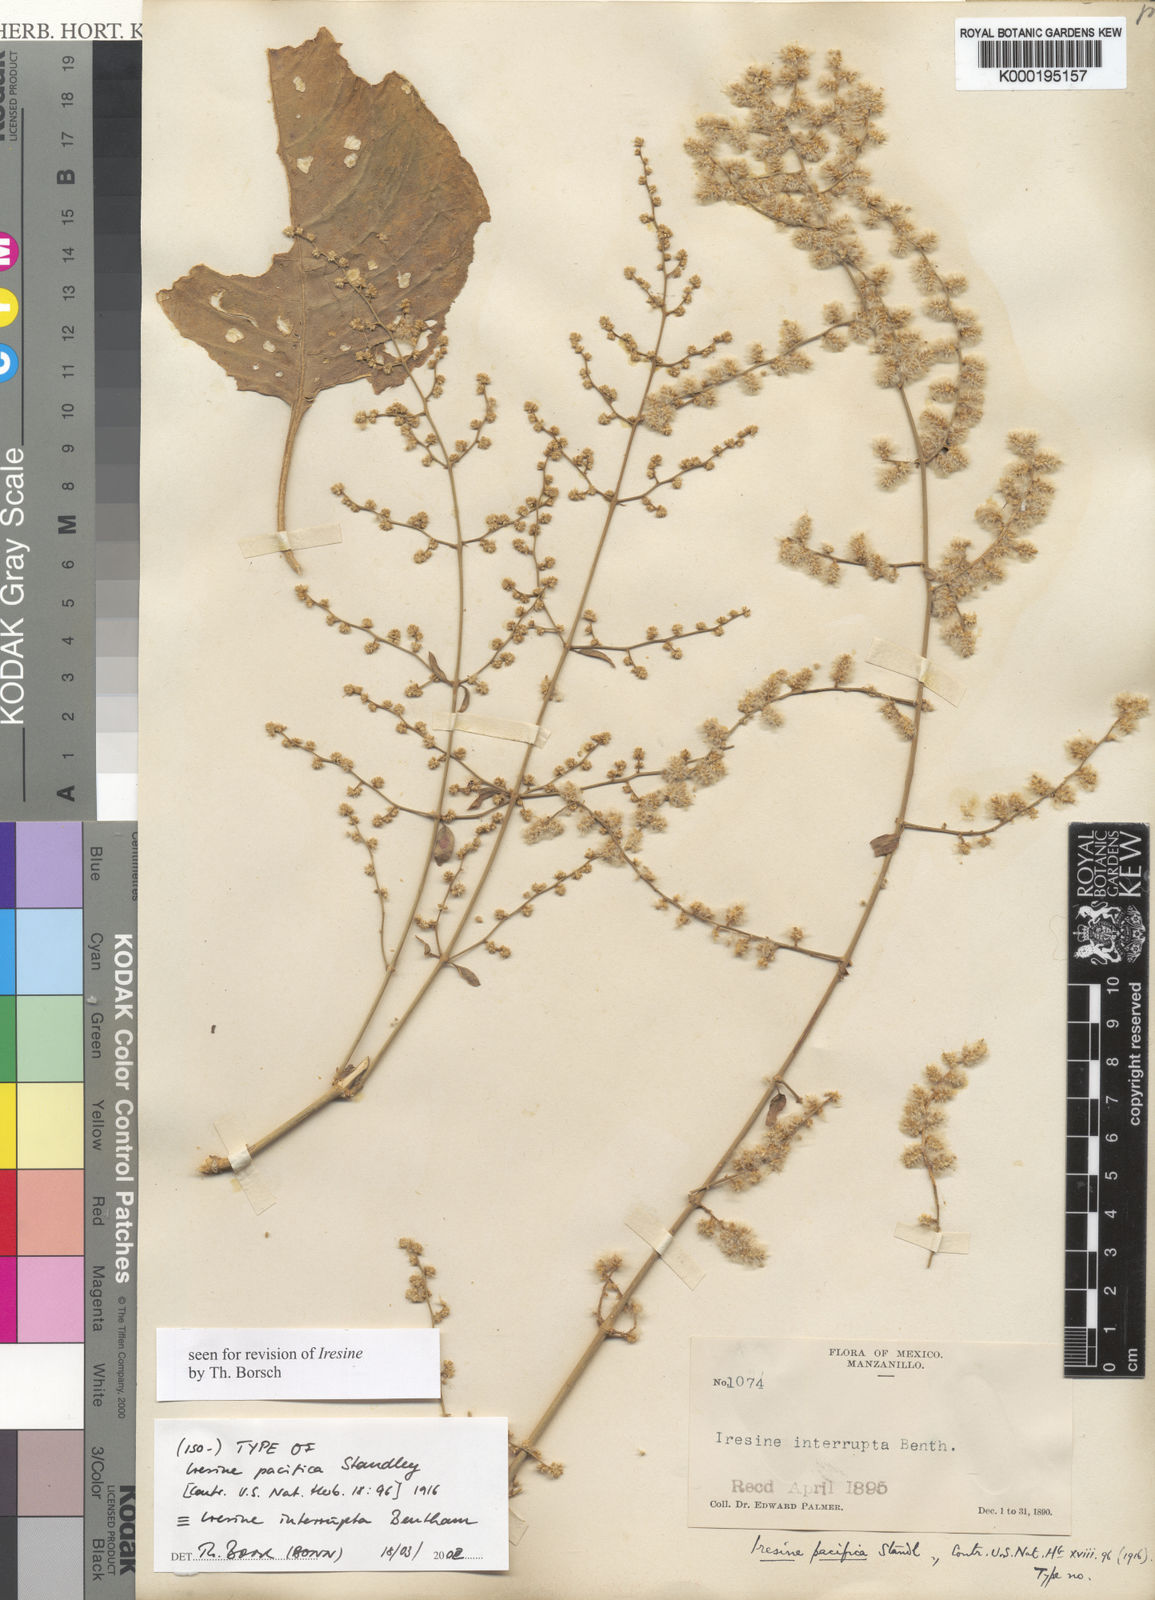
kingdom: Plantae
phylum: Tracheophyta
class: Magnoliopsida
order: Caryophyllales
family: Amaranthaceae
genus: Iresine
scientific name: Iresine pacifica
